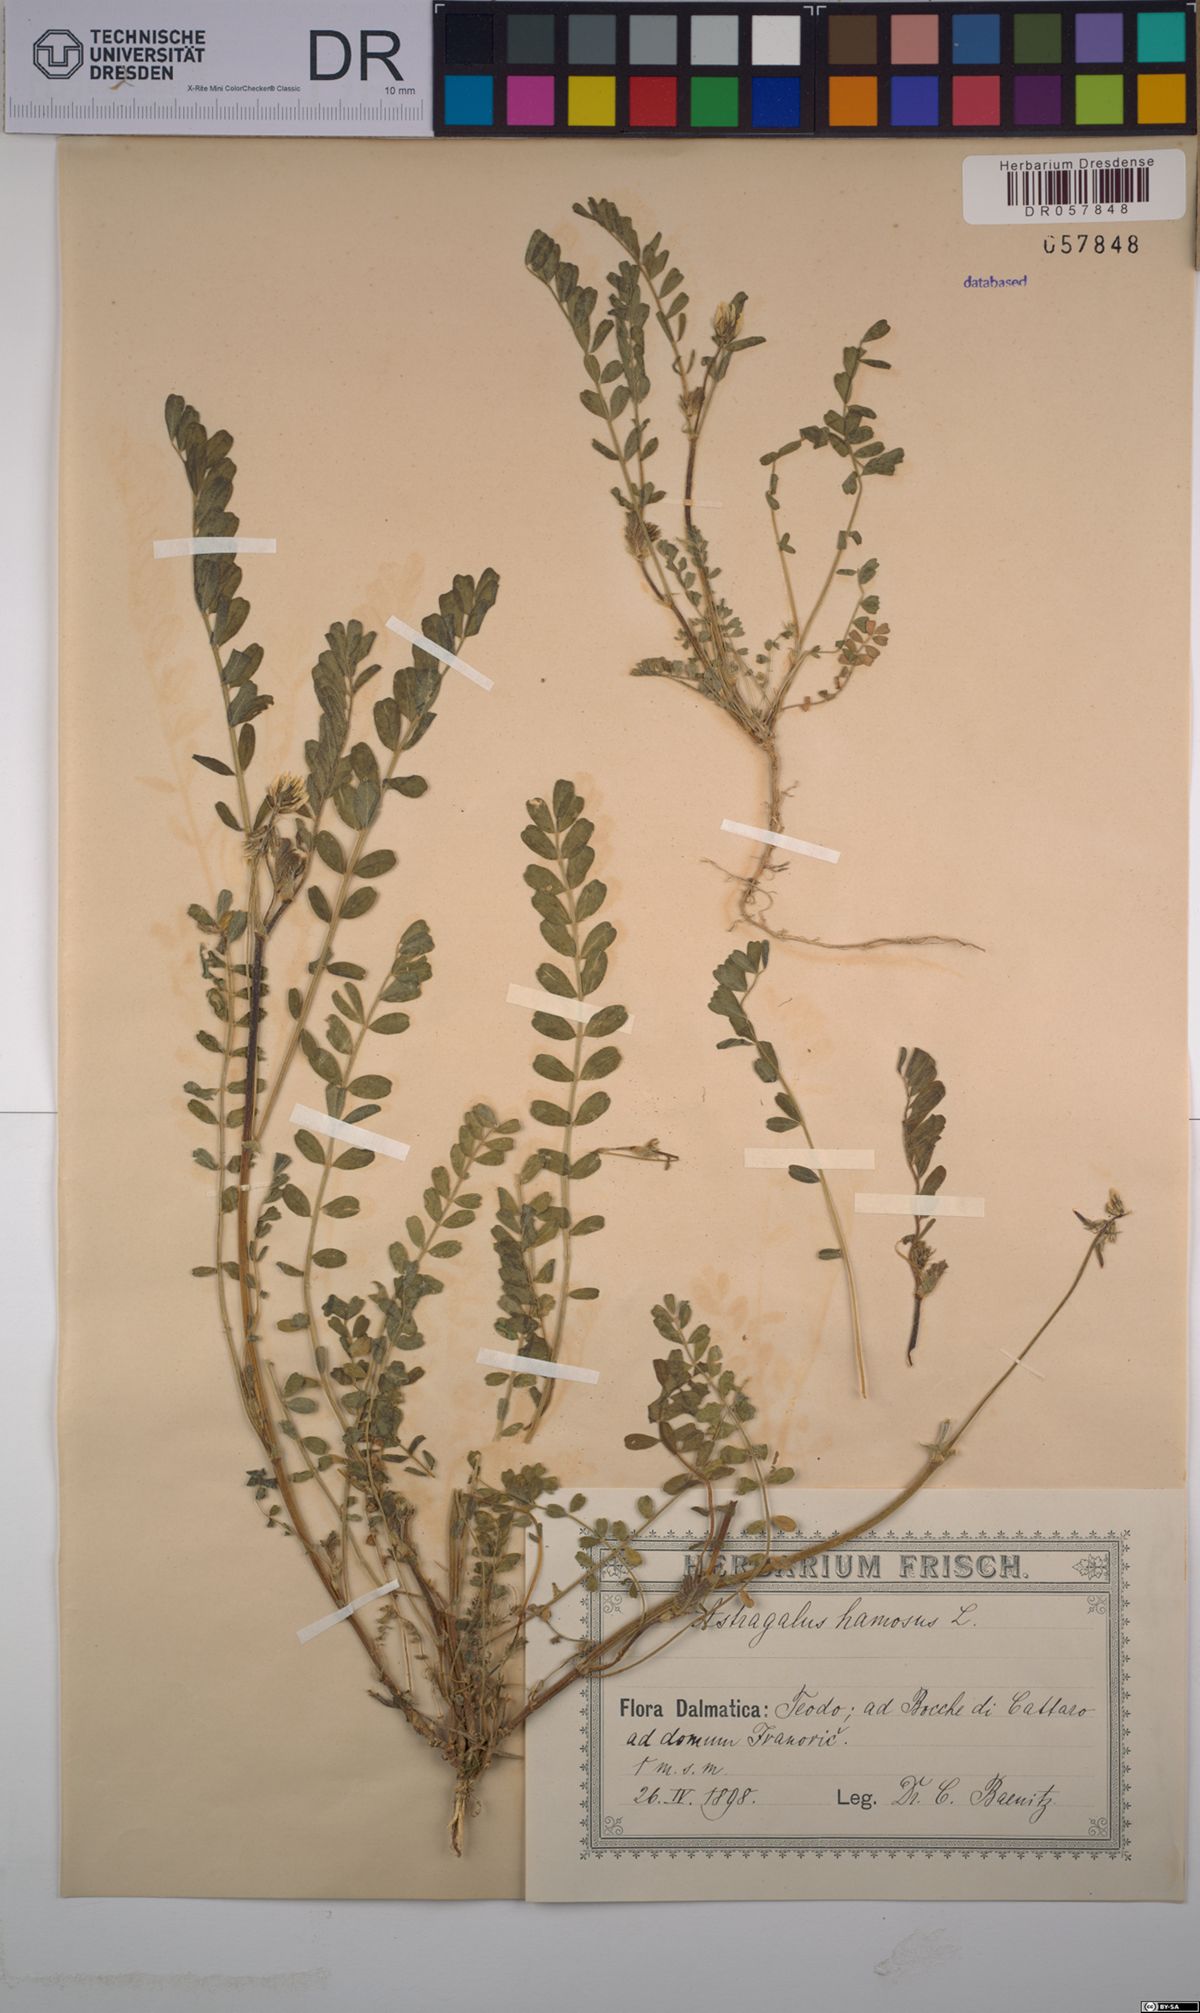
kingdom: Plantae
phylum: Tracheophyta
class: Magnoliopsida
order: Fabales
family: Fabaceae
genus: Astragalus
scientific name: Astragalus hamosus
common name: European milkvetch
